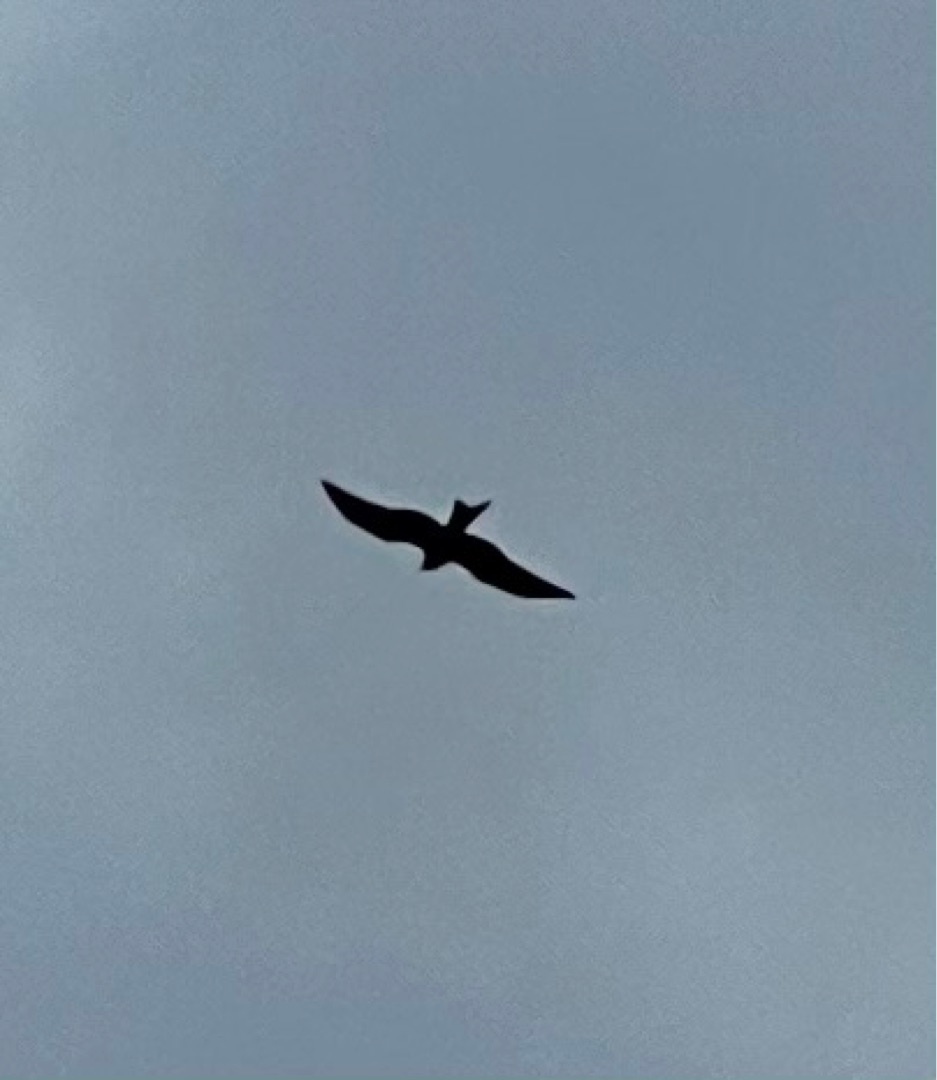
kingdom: Animalia
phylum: Chordata
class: Aves
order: Accipitriformes
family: Accipitridae
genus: Milvus
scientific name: Milvus milvus
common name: Rød glente
